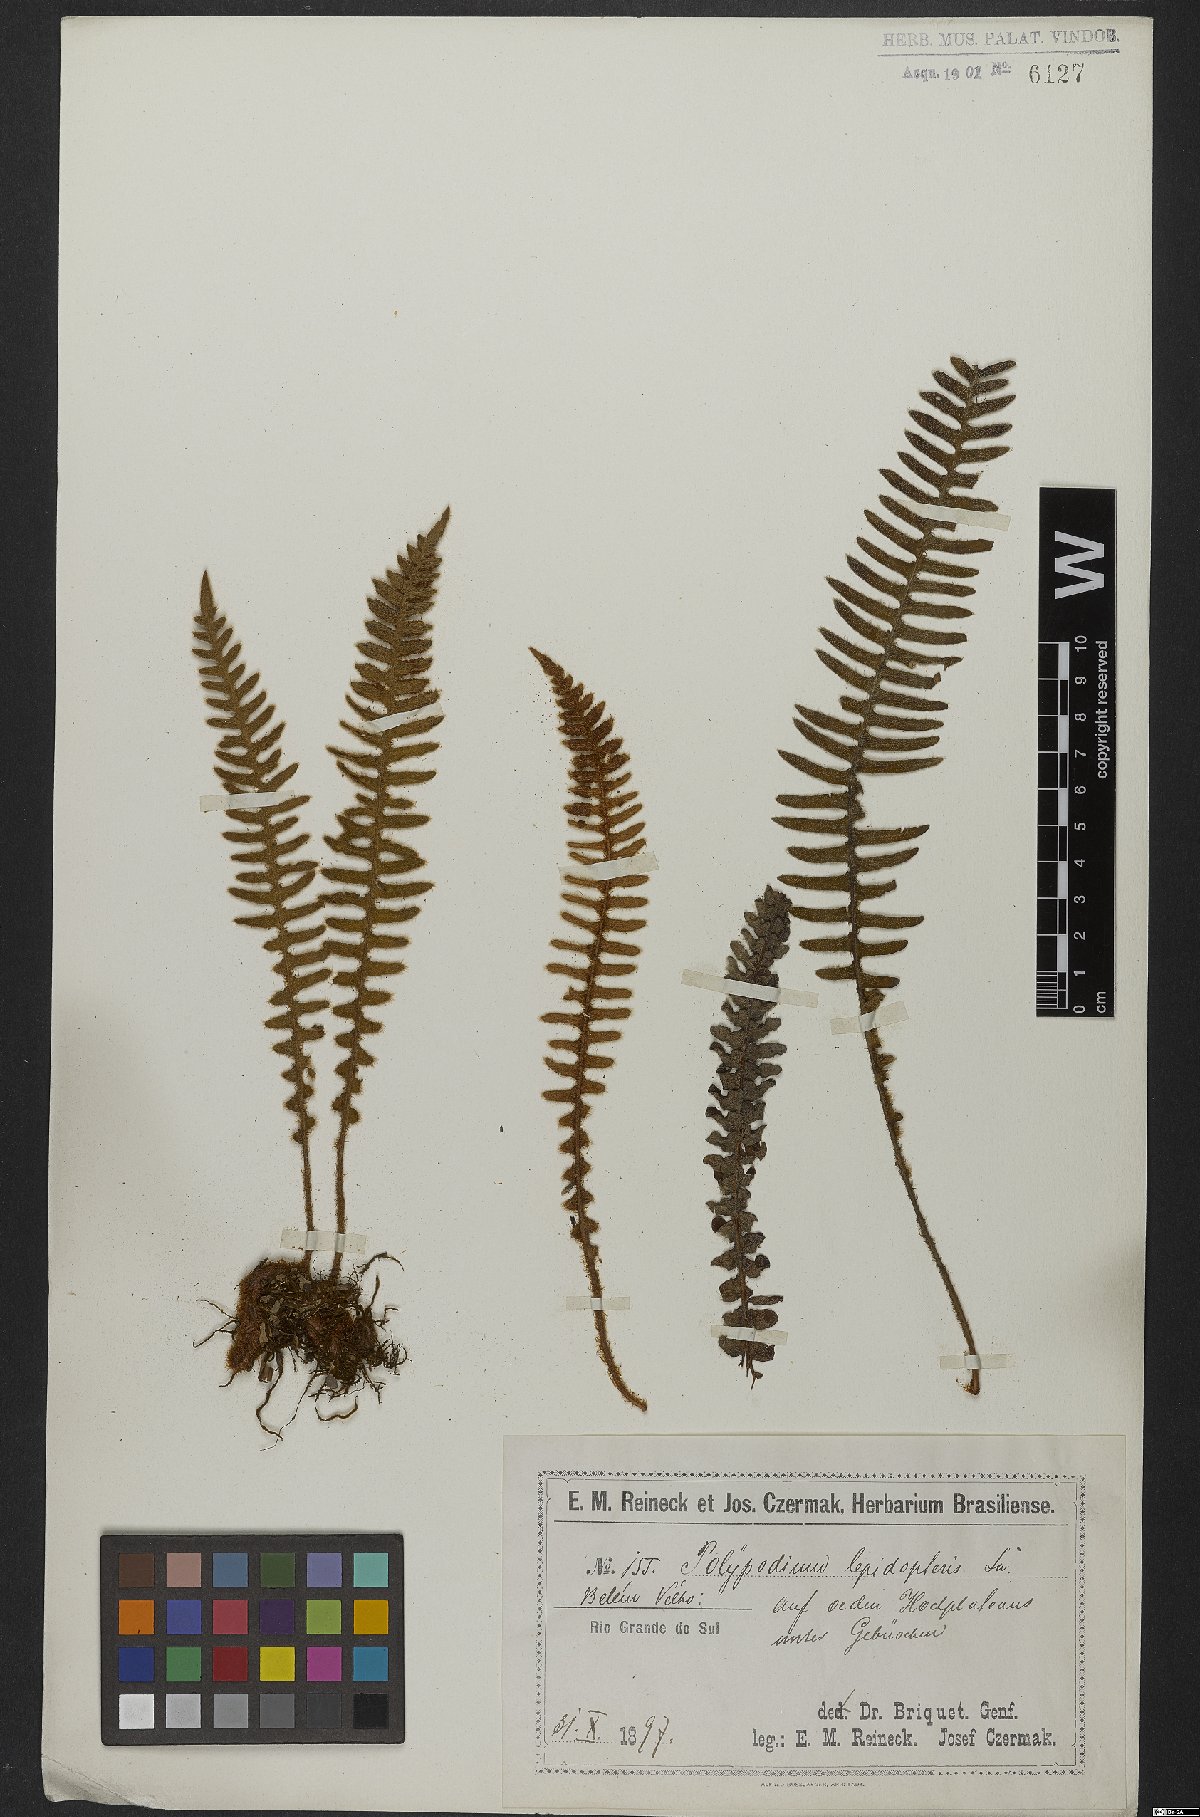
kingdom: Plantae
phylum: Tracheophyta
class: Polypodiopsida
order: Polypodiales
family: Polypodiaceae
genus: Pleopeltis
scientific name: Pleopeltis lepidopteris
